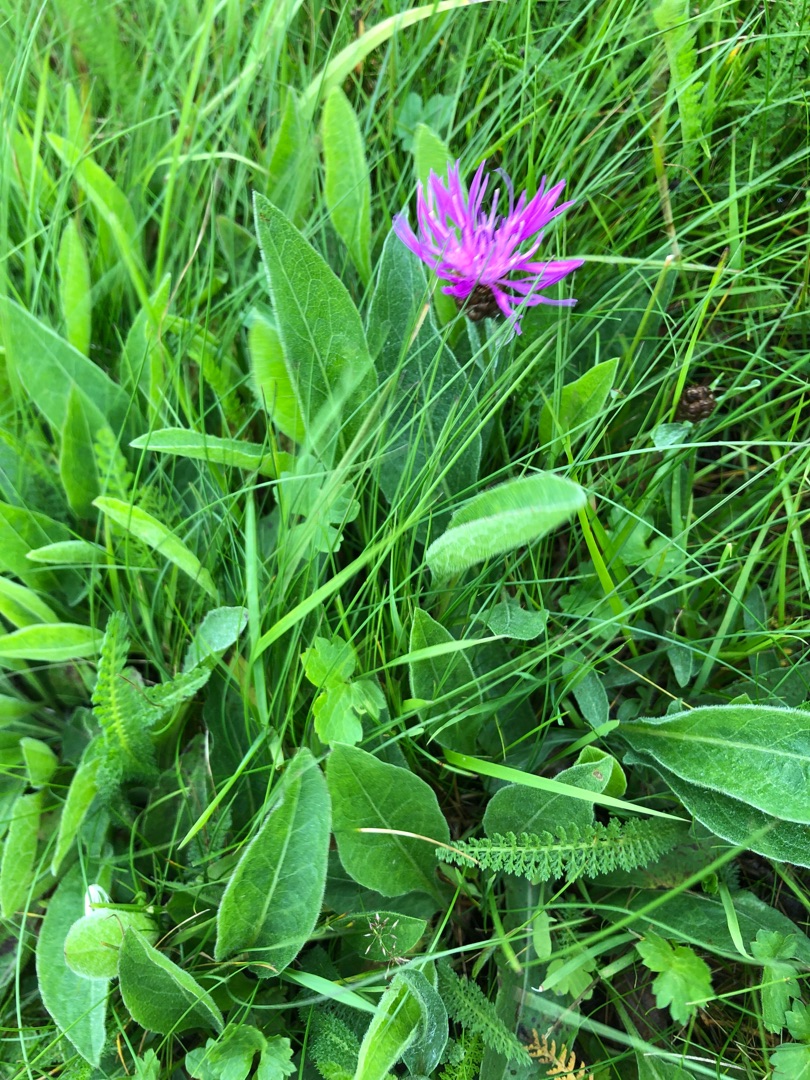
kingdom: Plantae
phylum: Tracheophyta
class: Magnoliopsida
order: Asterales
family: Asteraceae
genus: Centaurea
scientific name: Centaurea jacea
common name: Almindelig knopurt
